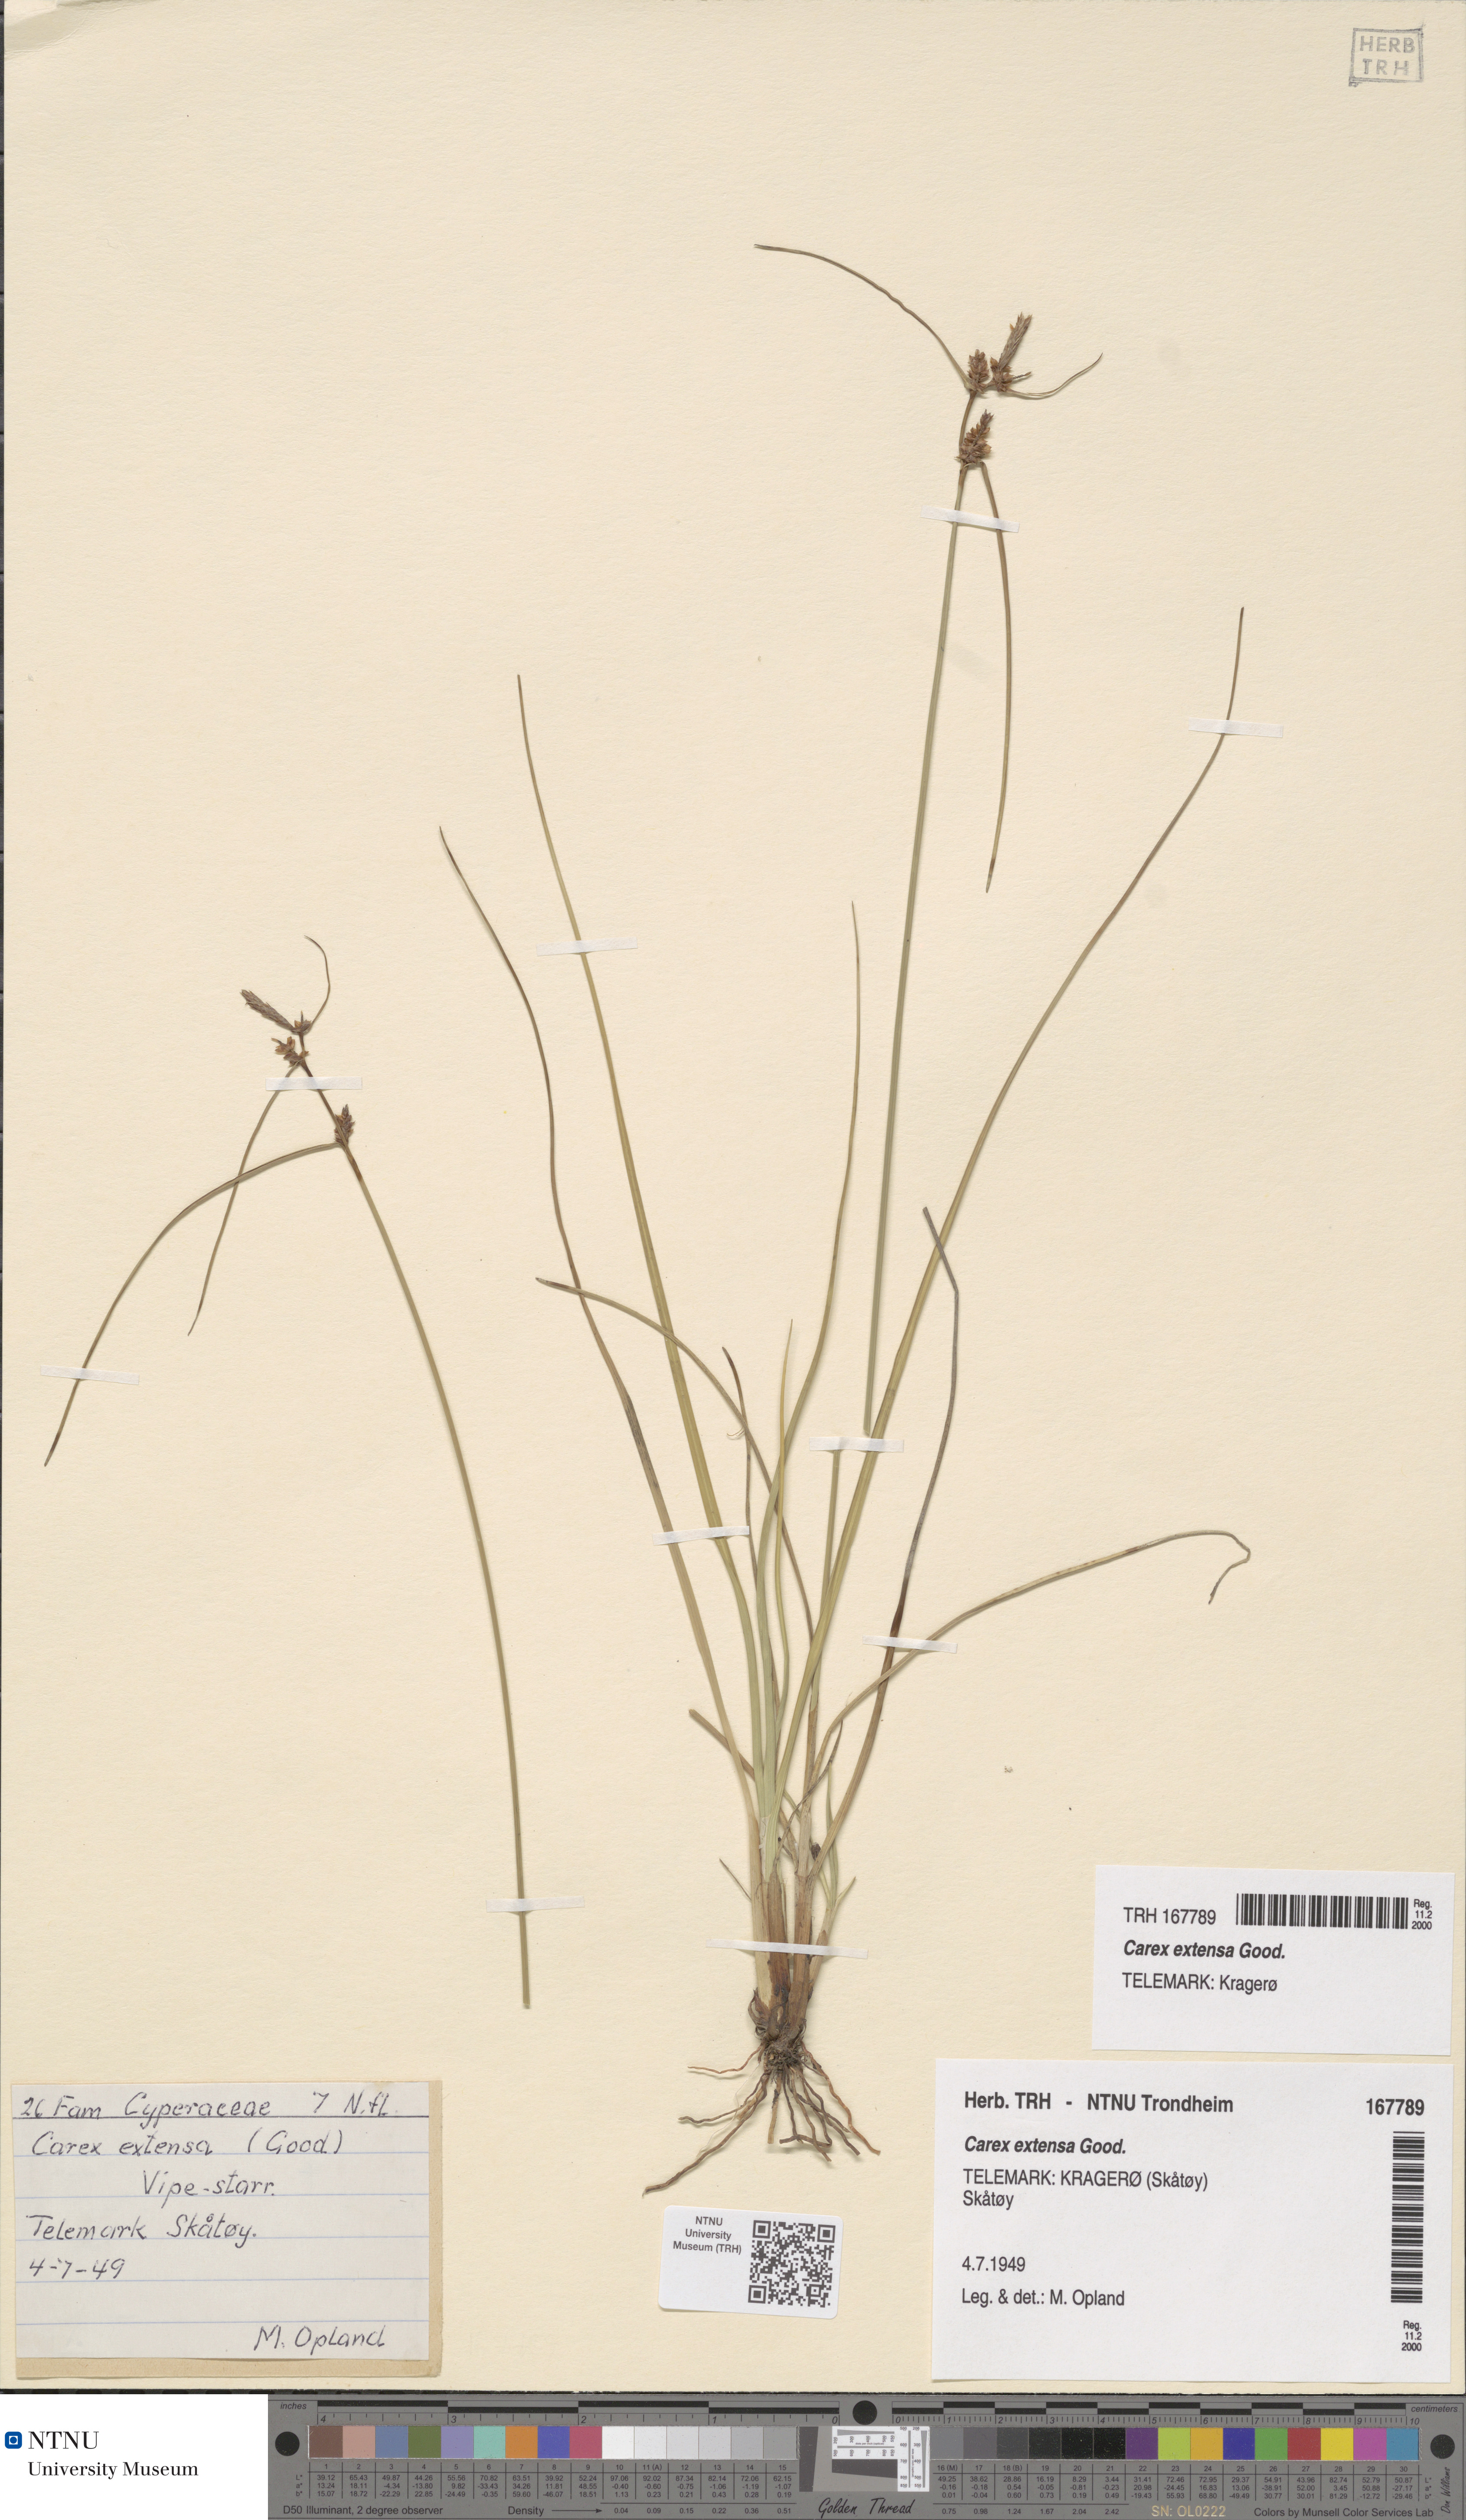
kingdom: Plantae
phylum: Tracheophyta
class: Liliopsida
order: Poales
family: Cyperaceae
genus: Carex
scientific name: Carex extensa
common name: Long-bracted sedge
